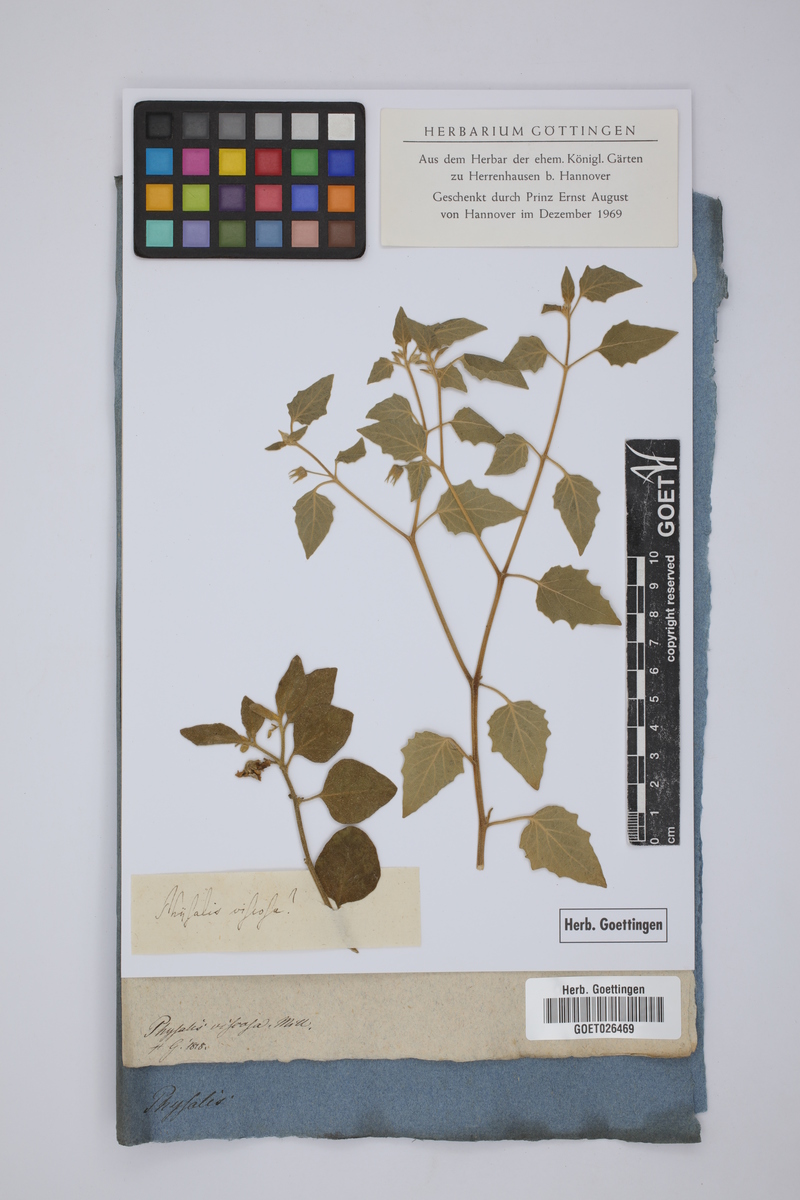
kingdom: Plantae
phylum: Tracheophyta
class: Magnoliopsida
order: Solanales
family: Solanaceae
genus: Physalis
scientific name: Physalis viscosa
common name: Stellate ground-cherry
